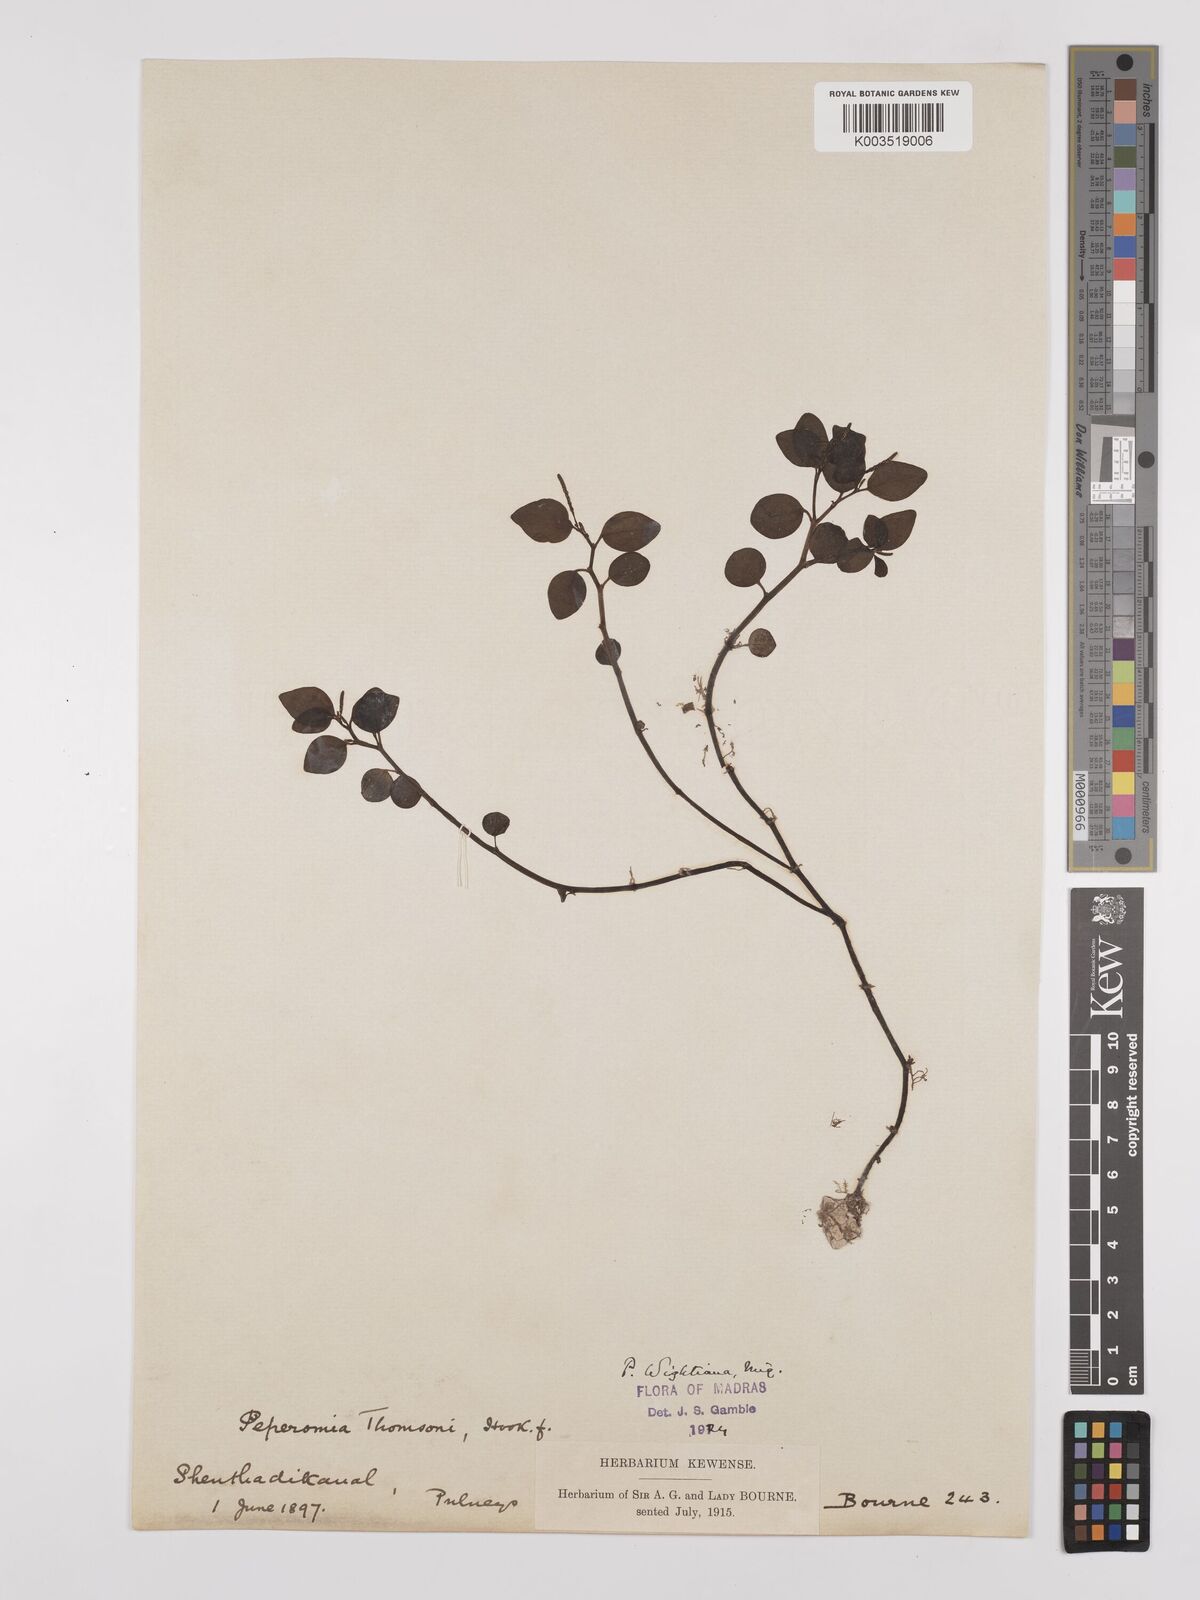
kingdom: Plantae
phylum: Tracheophyta
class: Magnoliopsida
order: Piperales
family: Piperaceae
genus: Peperomia
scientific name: Peperomia wightiana
